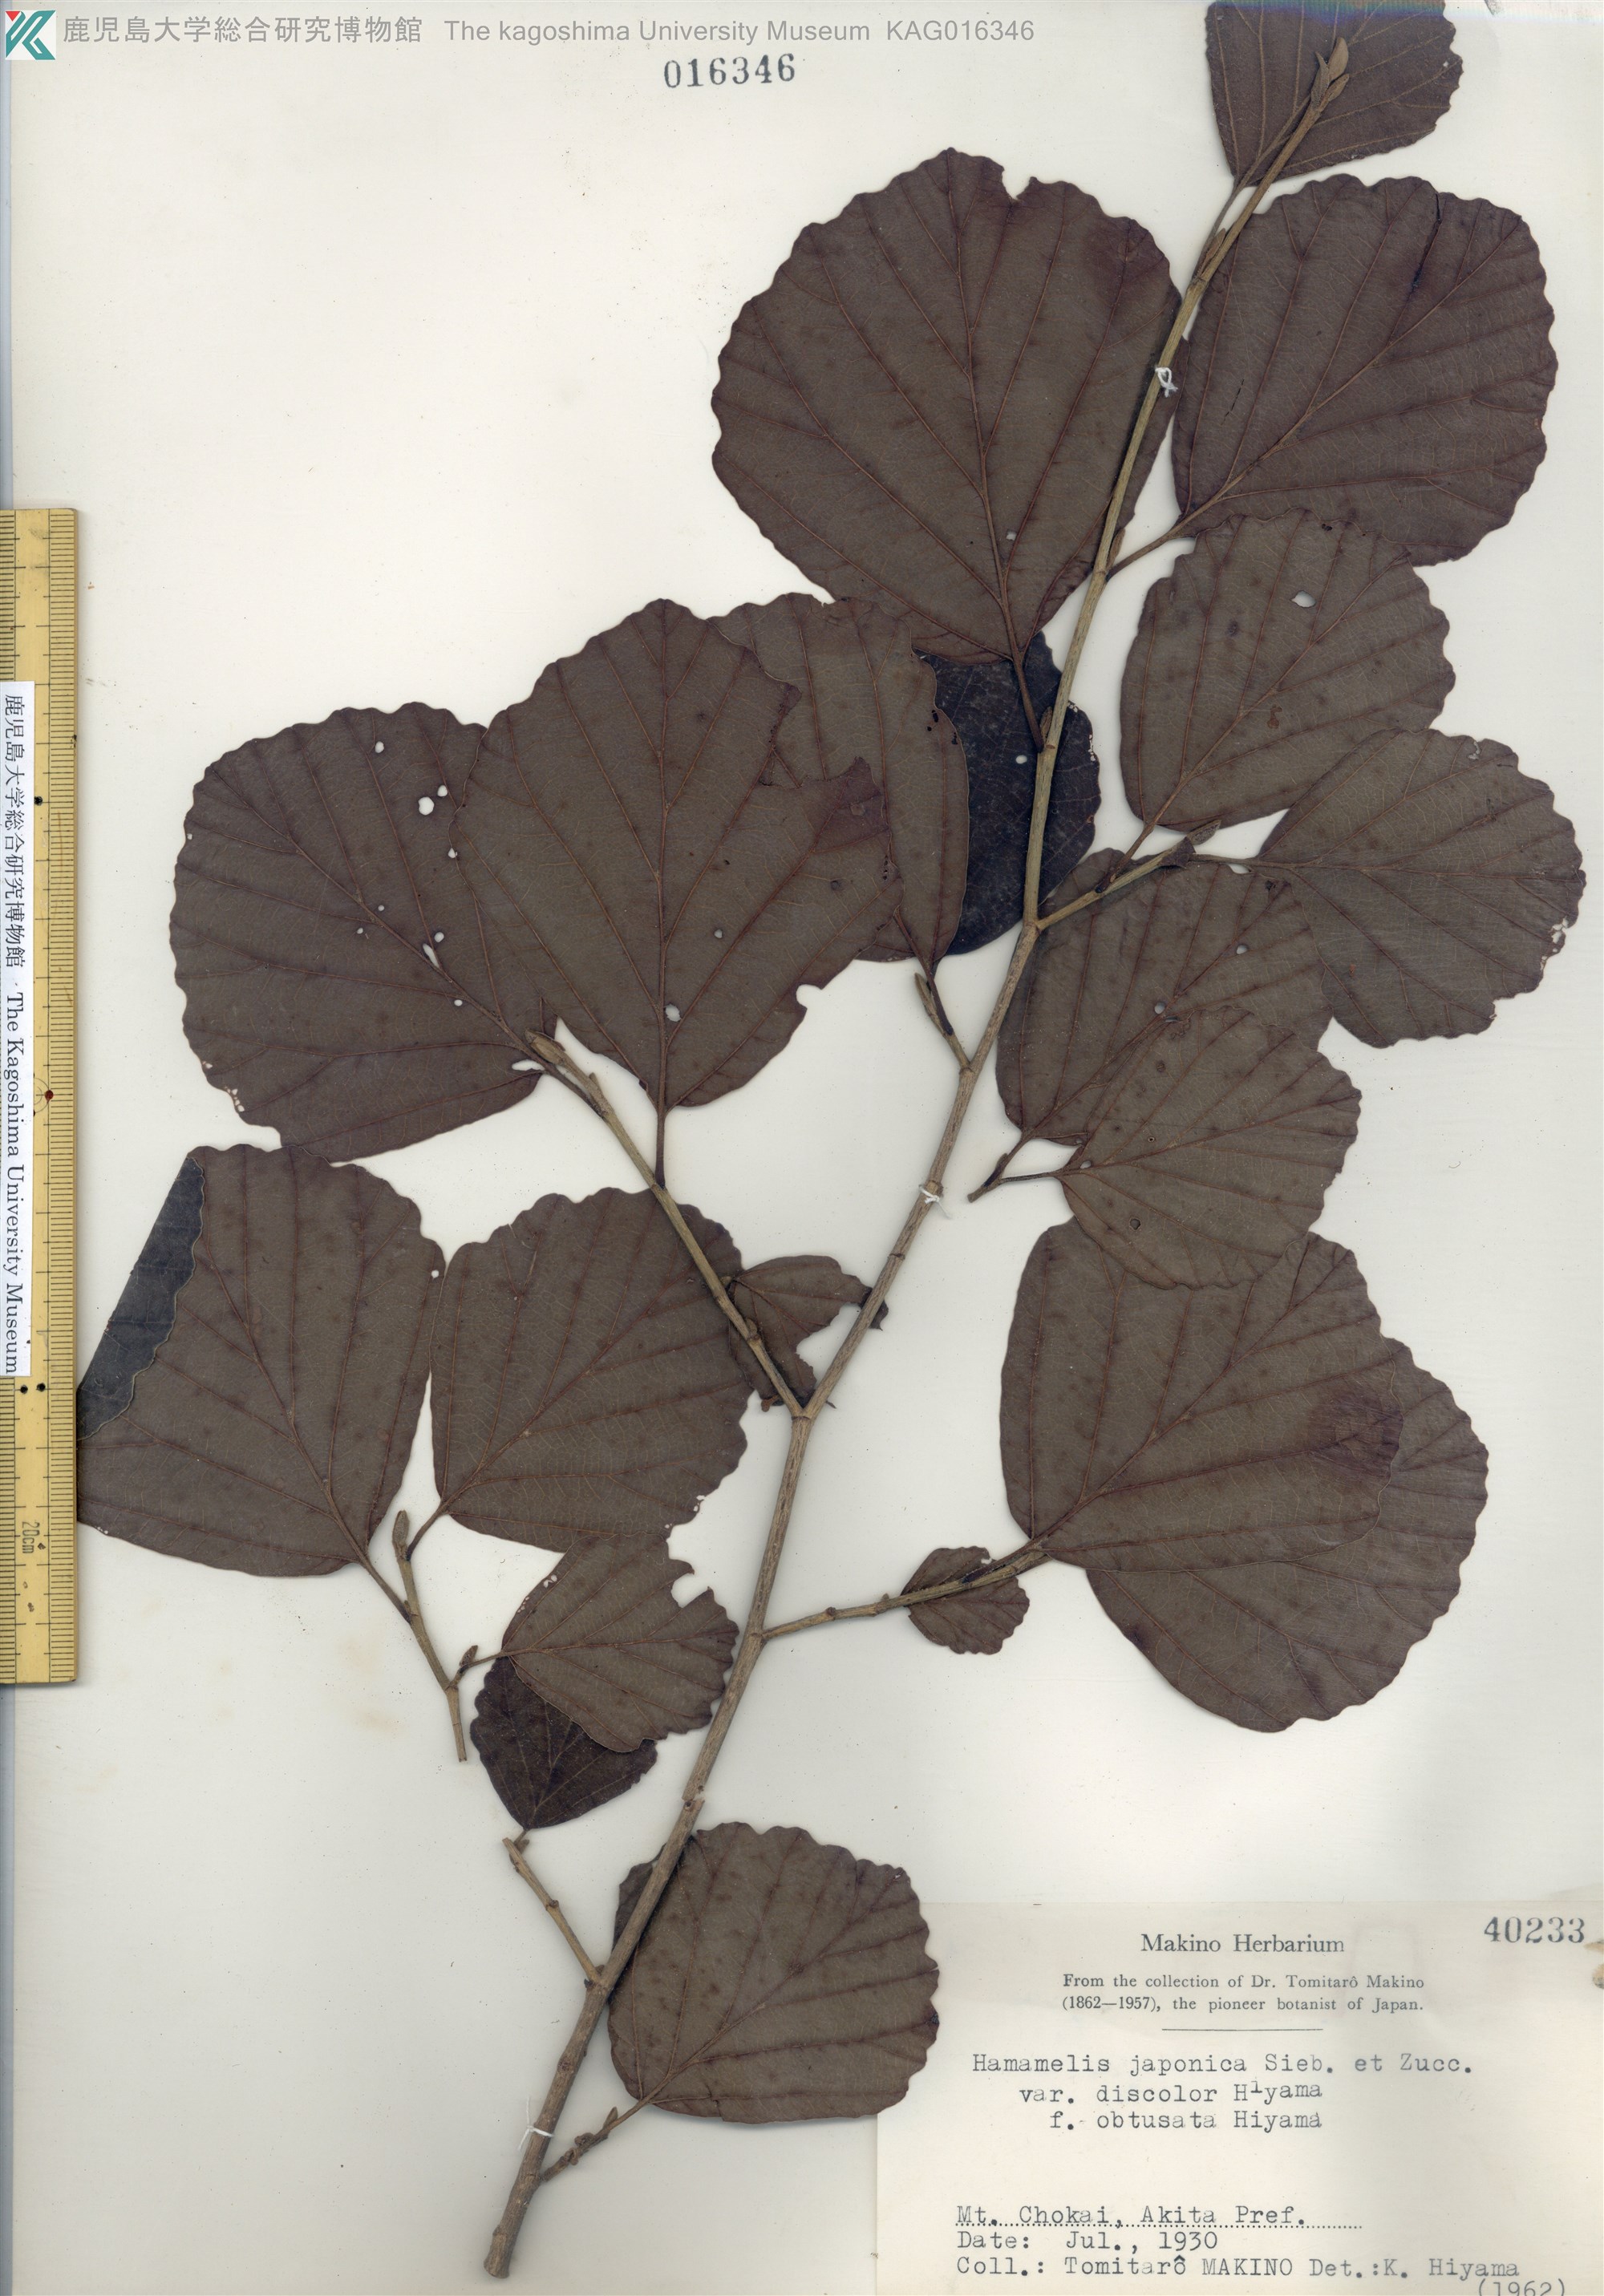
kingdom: Plantae
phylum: Tracheophyta
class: Magnoliopsida
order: Saxifragales
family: Hamamelidaceae
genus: Hamamelis
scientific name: Hamamelis japonica
